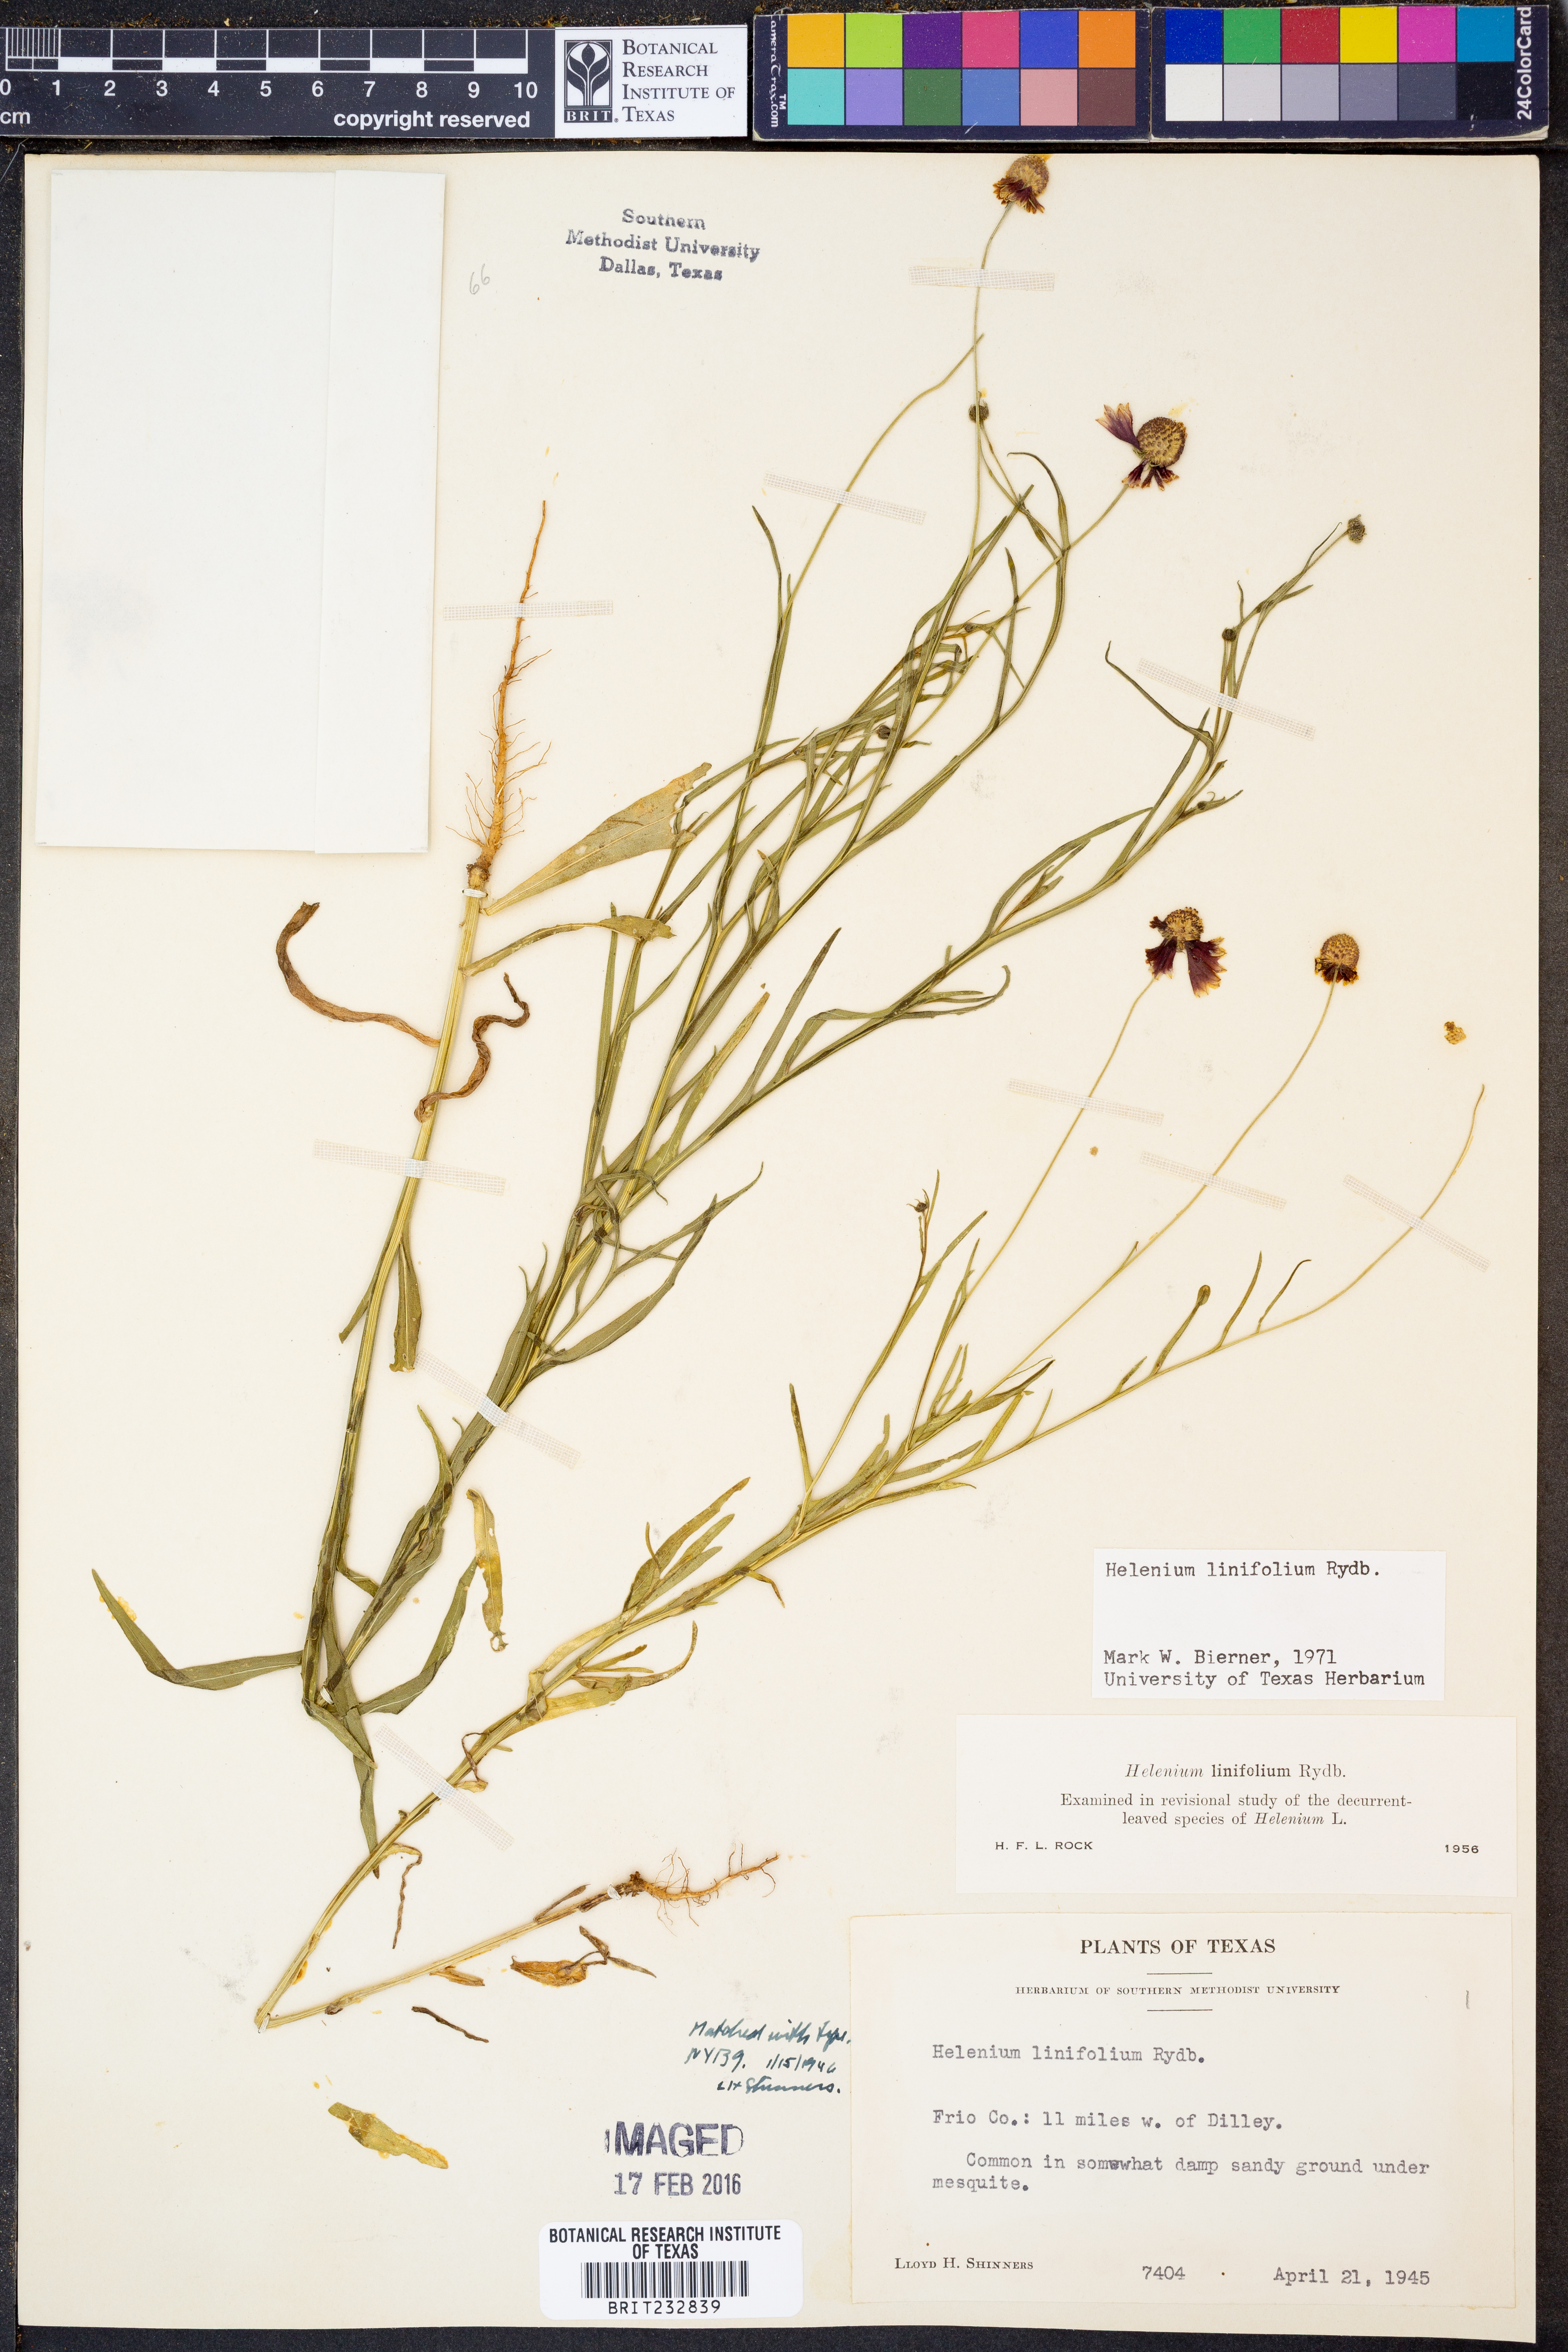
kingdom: Plantae
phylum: Tracheophyta
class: Magnoliopsida
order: Asterales
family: Asteraceae
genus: Helenium
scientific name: Helenium linifolium
